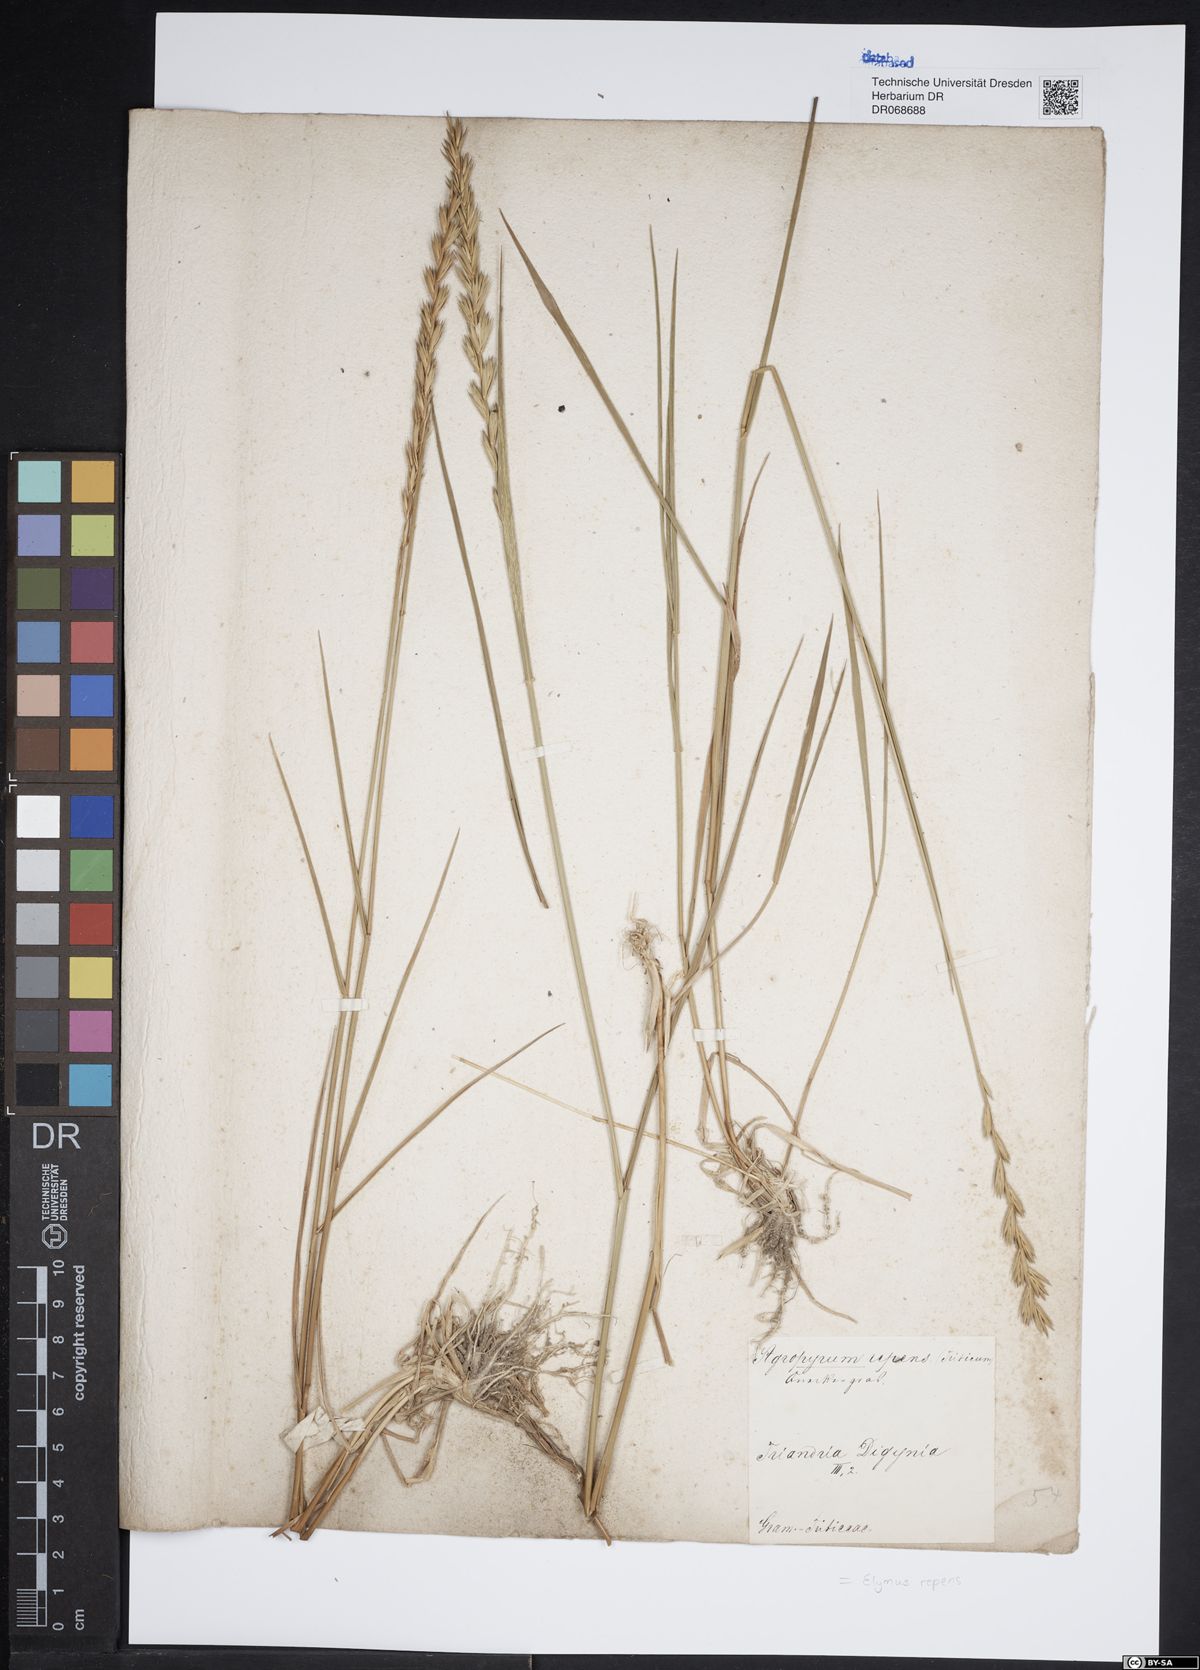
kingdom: Plantae
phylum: Tracheophyta
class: Liliopsida
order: Poales
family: Poaceae
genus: Elymus
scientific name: Elymus repens
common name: Quackgrass
